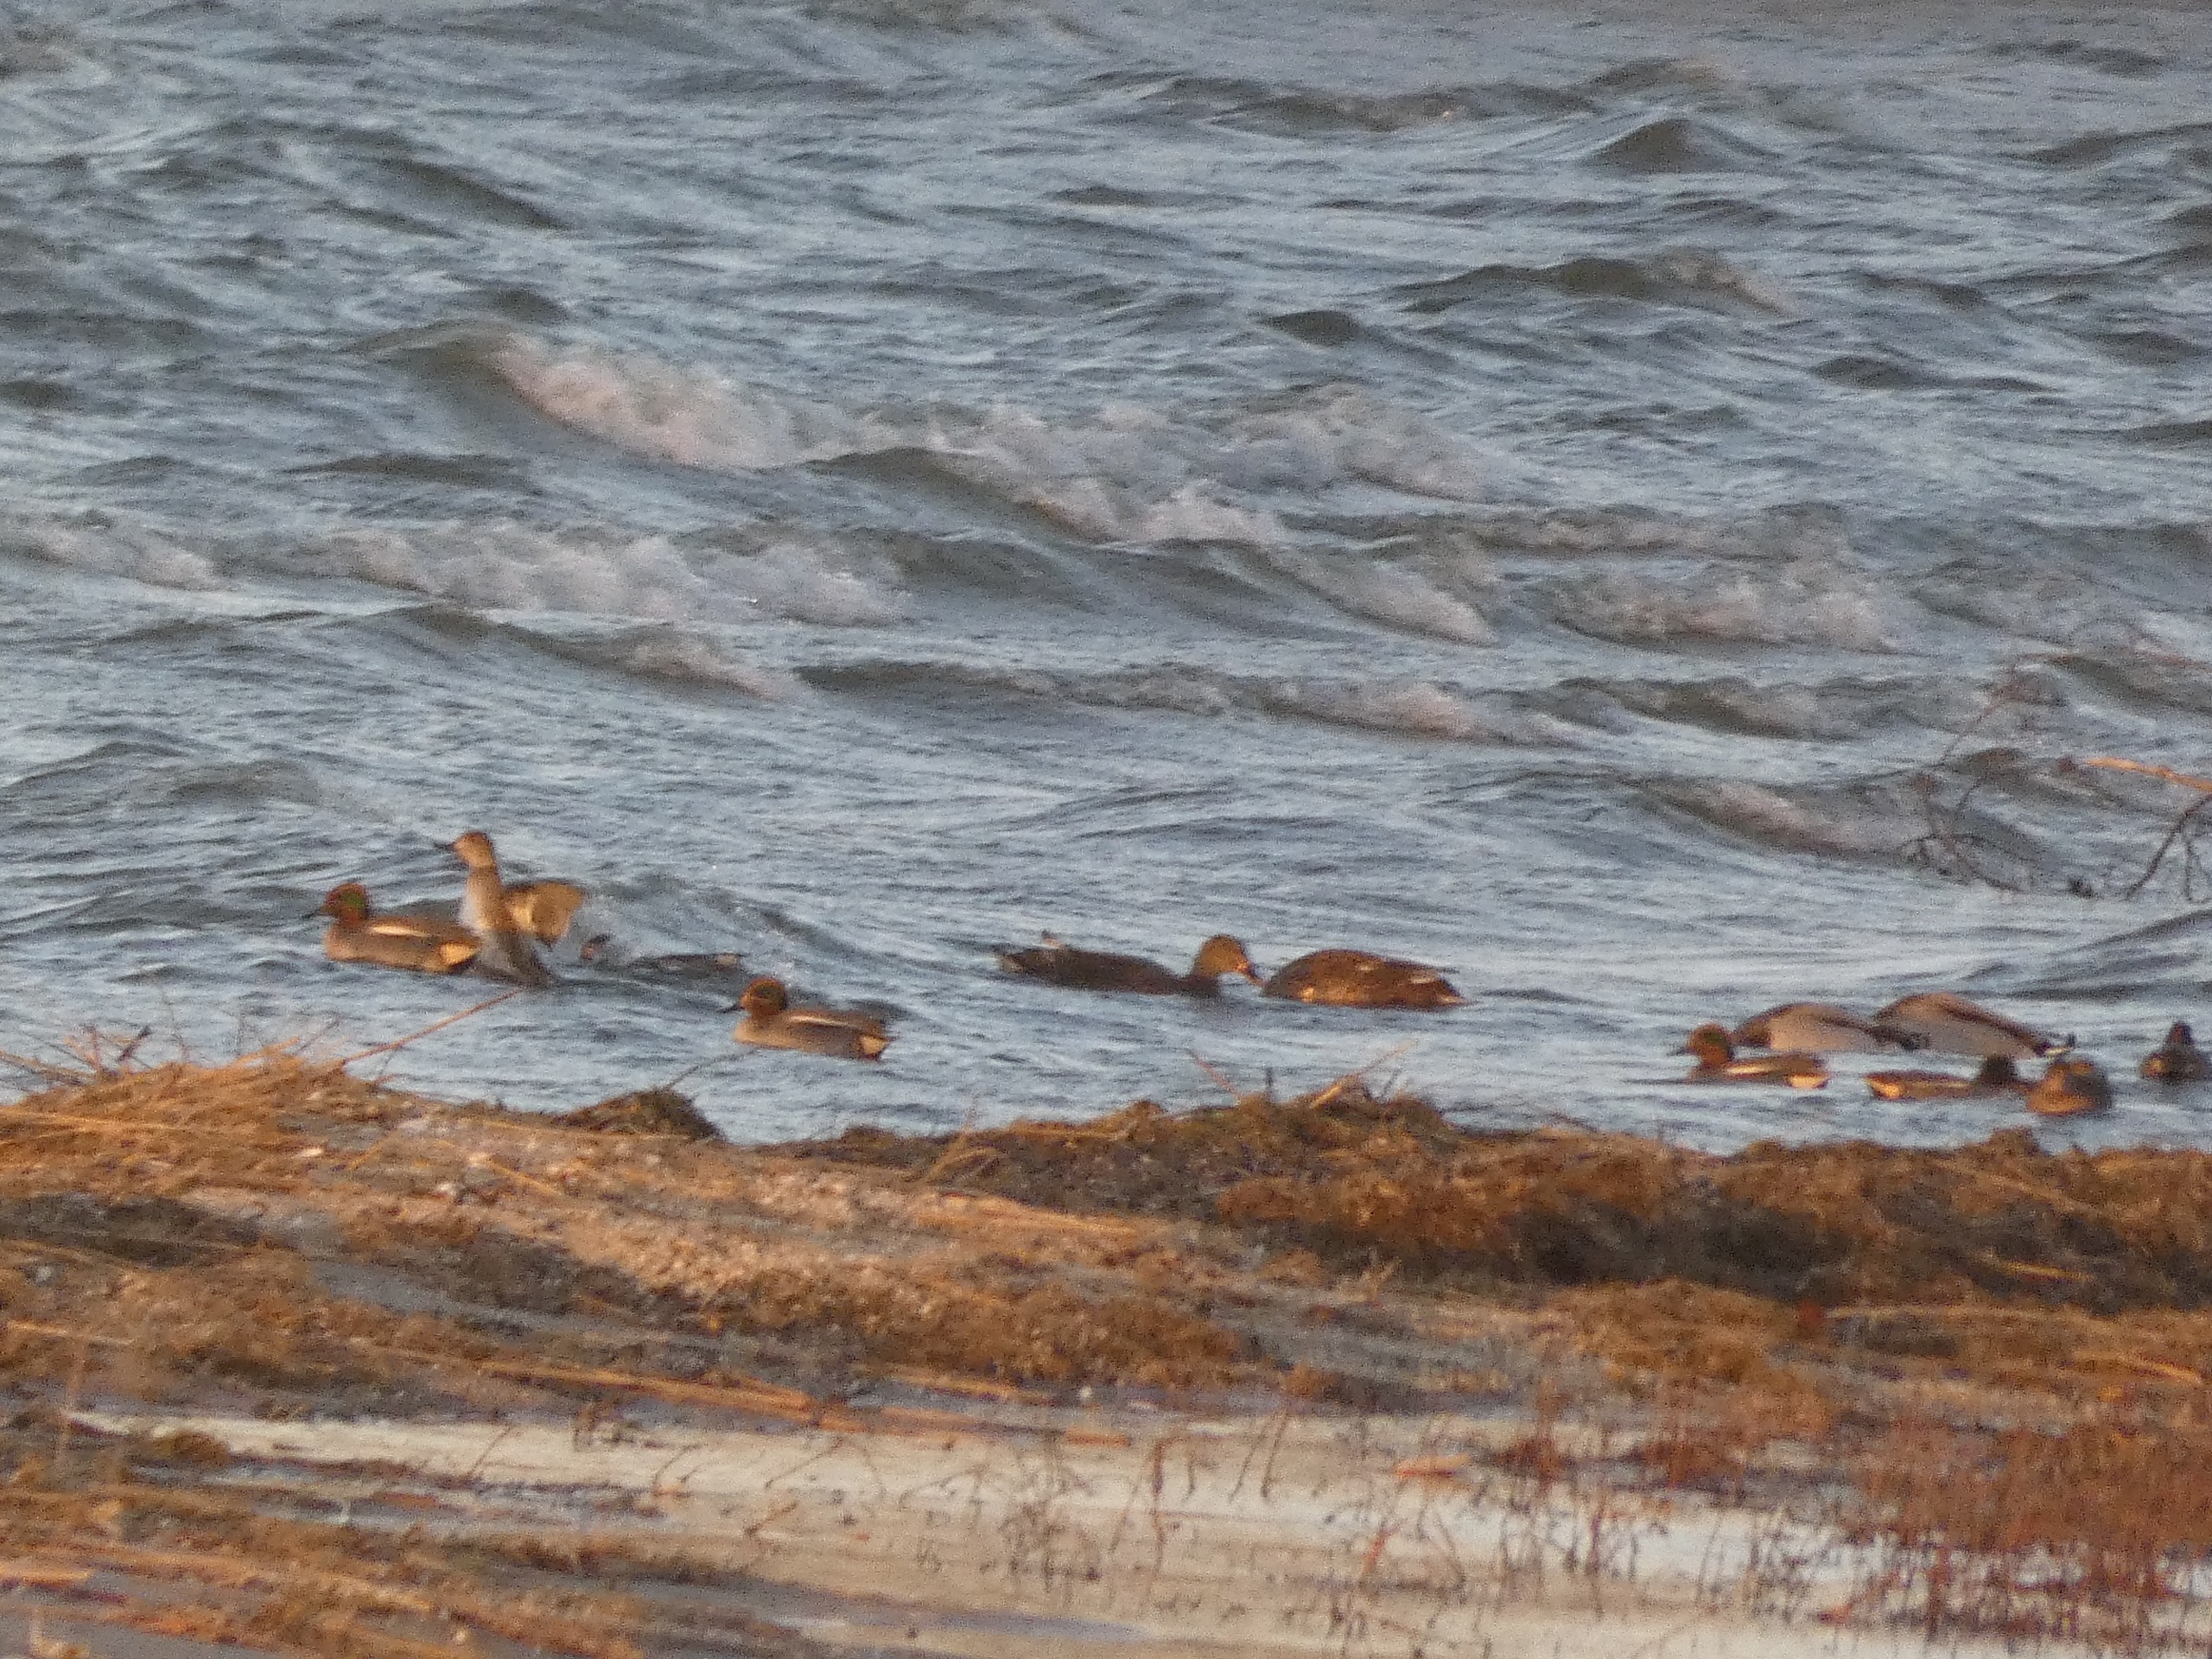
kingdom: Animalia
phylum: Chordata
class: Aves
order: Anseriformes
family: Anatidae
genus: Anas
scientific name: Anas crecca
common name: Krikand
